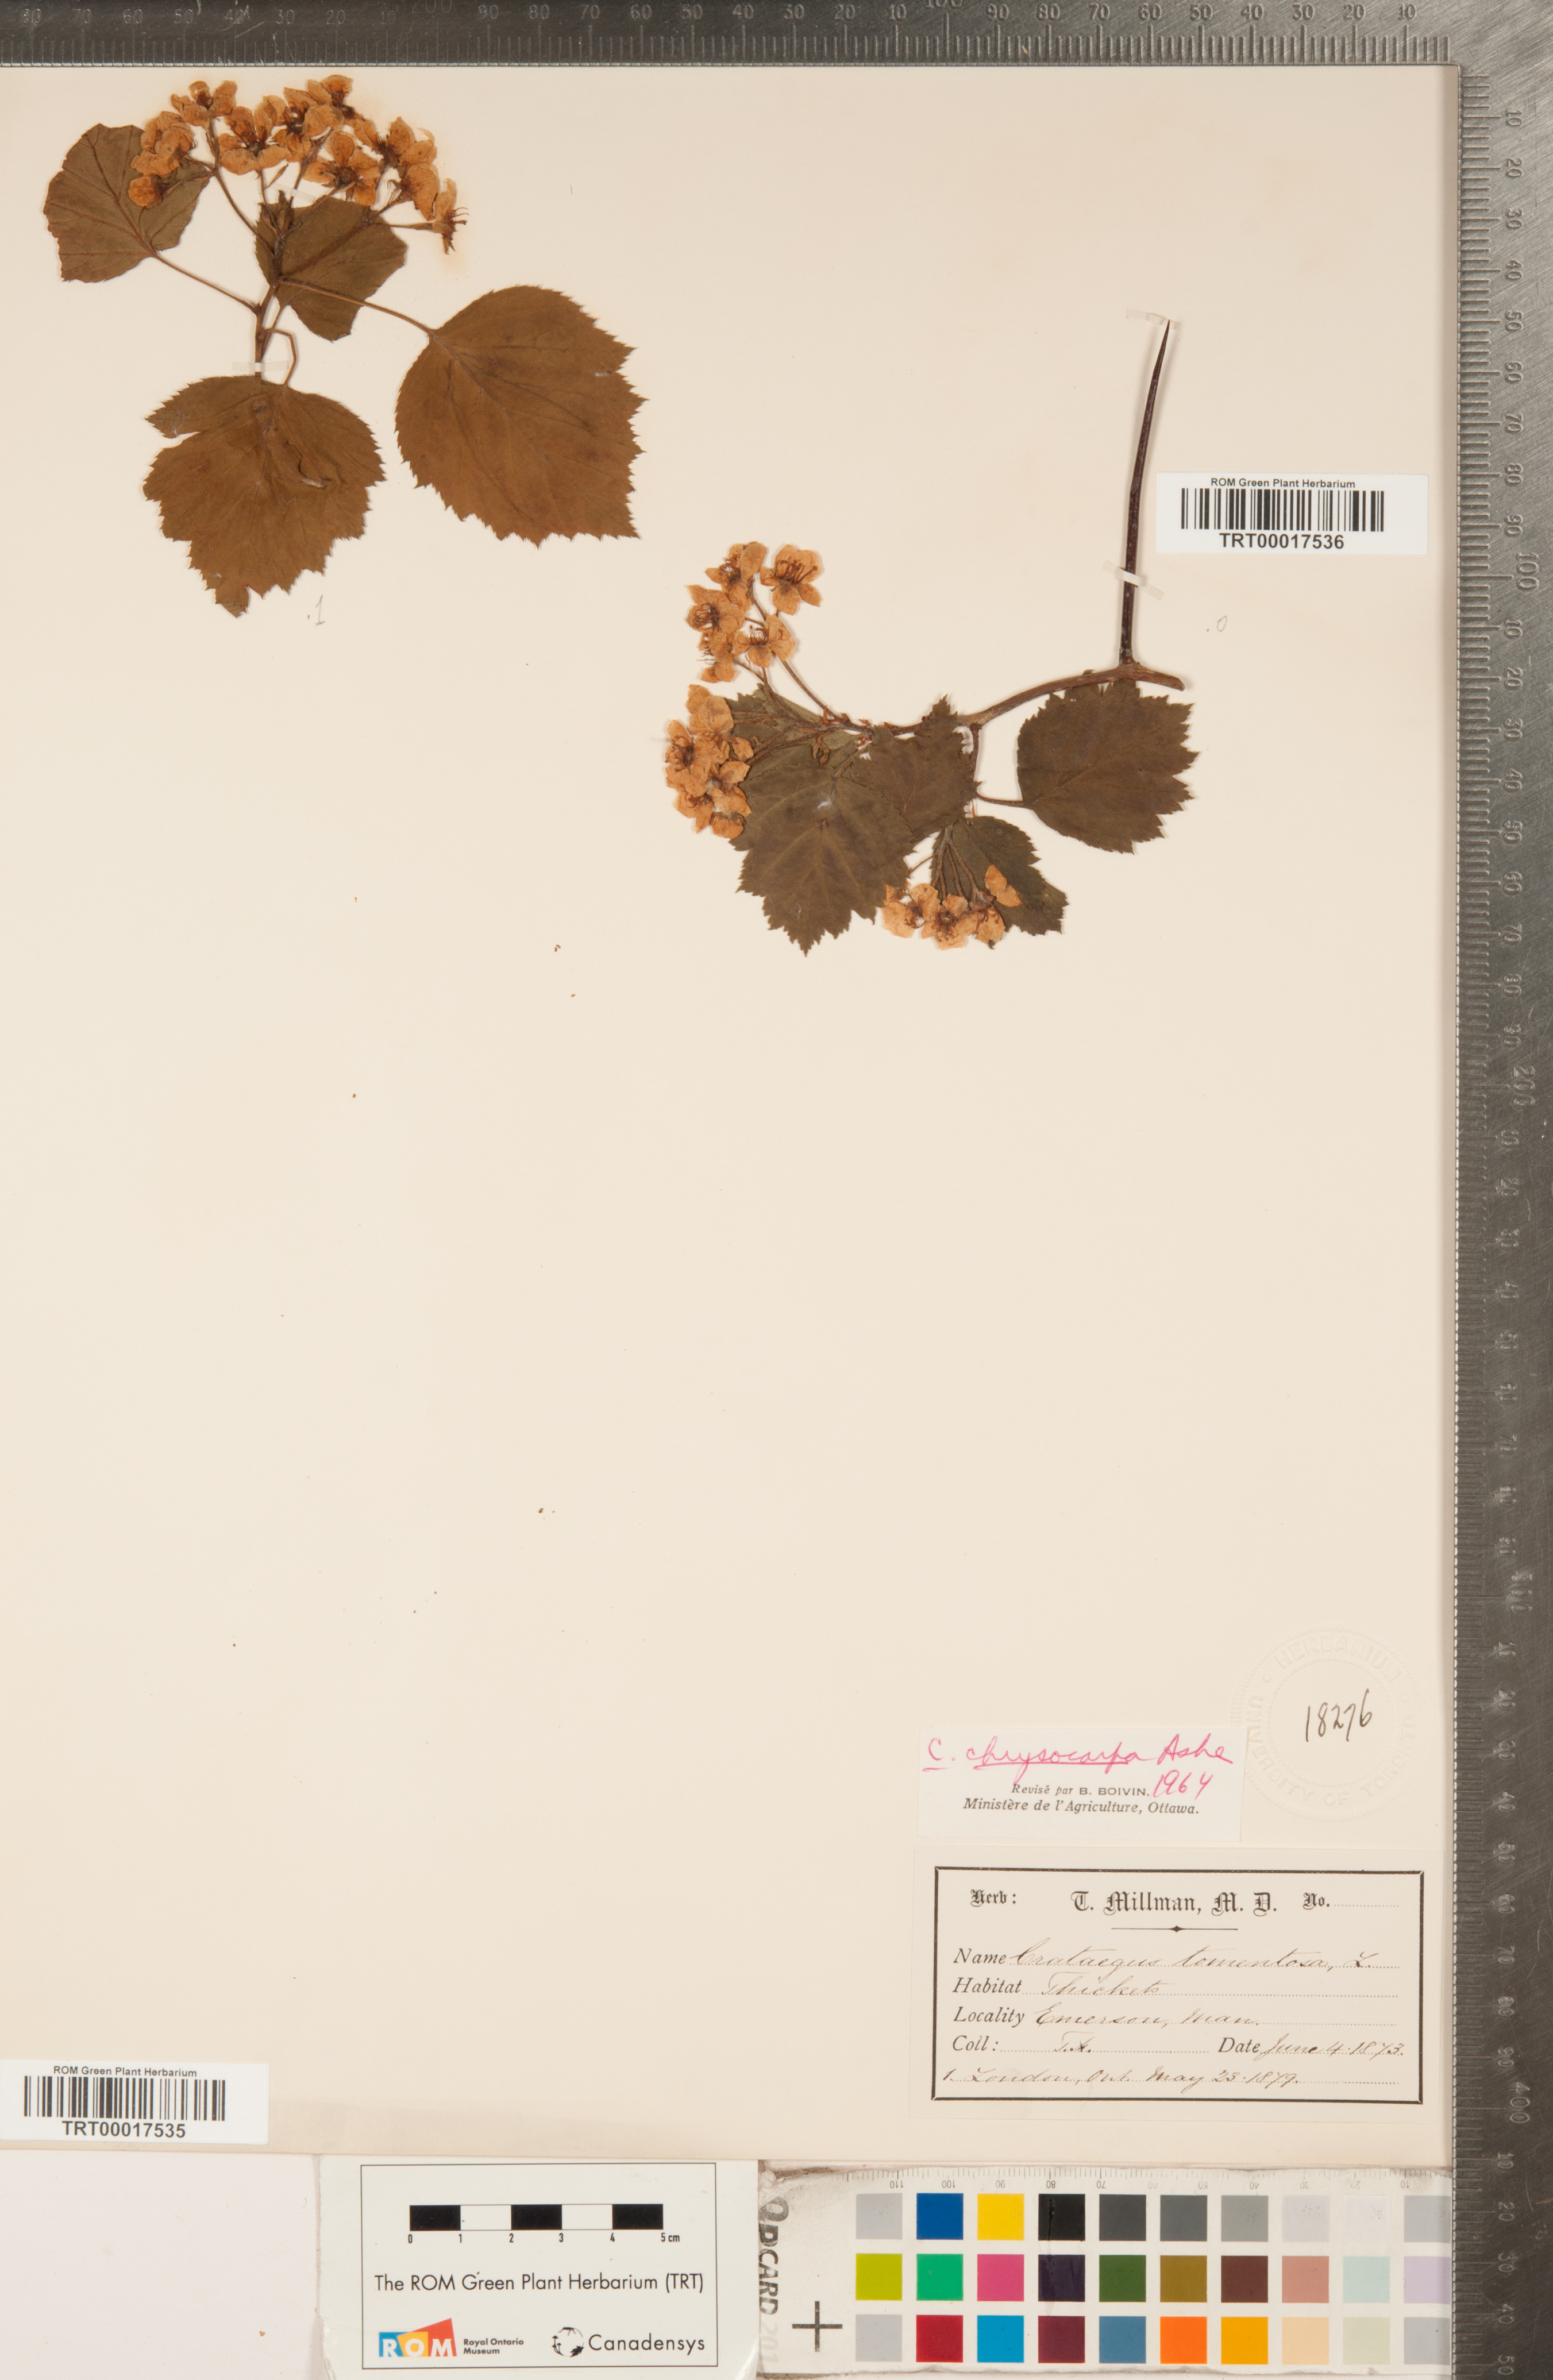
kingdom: Plantae
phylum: Tracheophyta
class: Magnoliopsida
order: Rosales
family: Rosaceae
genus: Crataegus
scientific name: Crataegus chrysocarpa
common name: Fire-berry hawthorn
